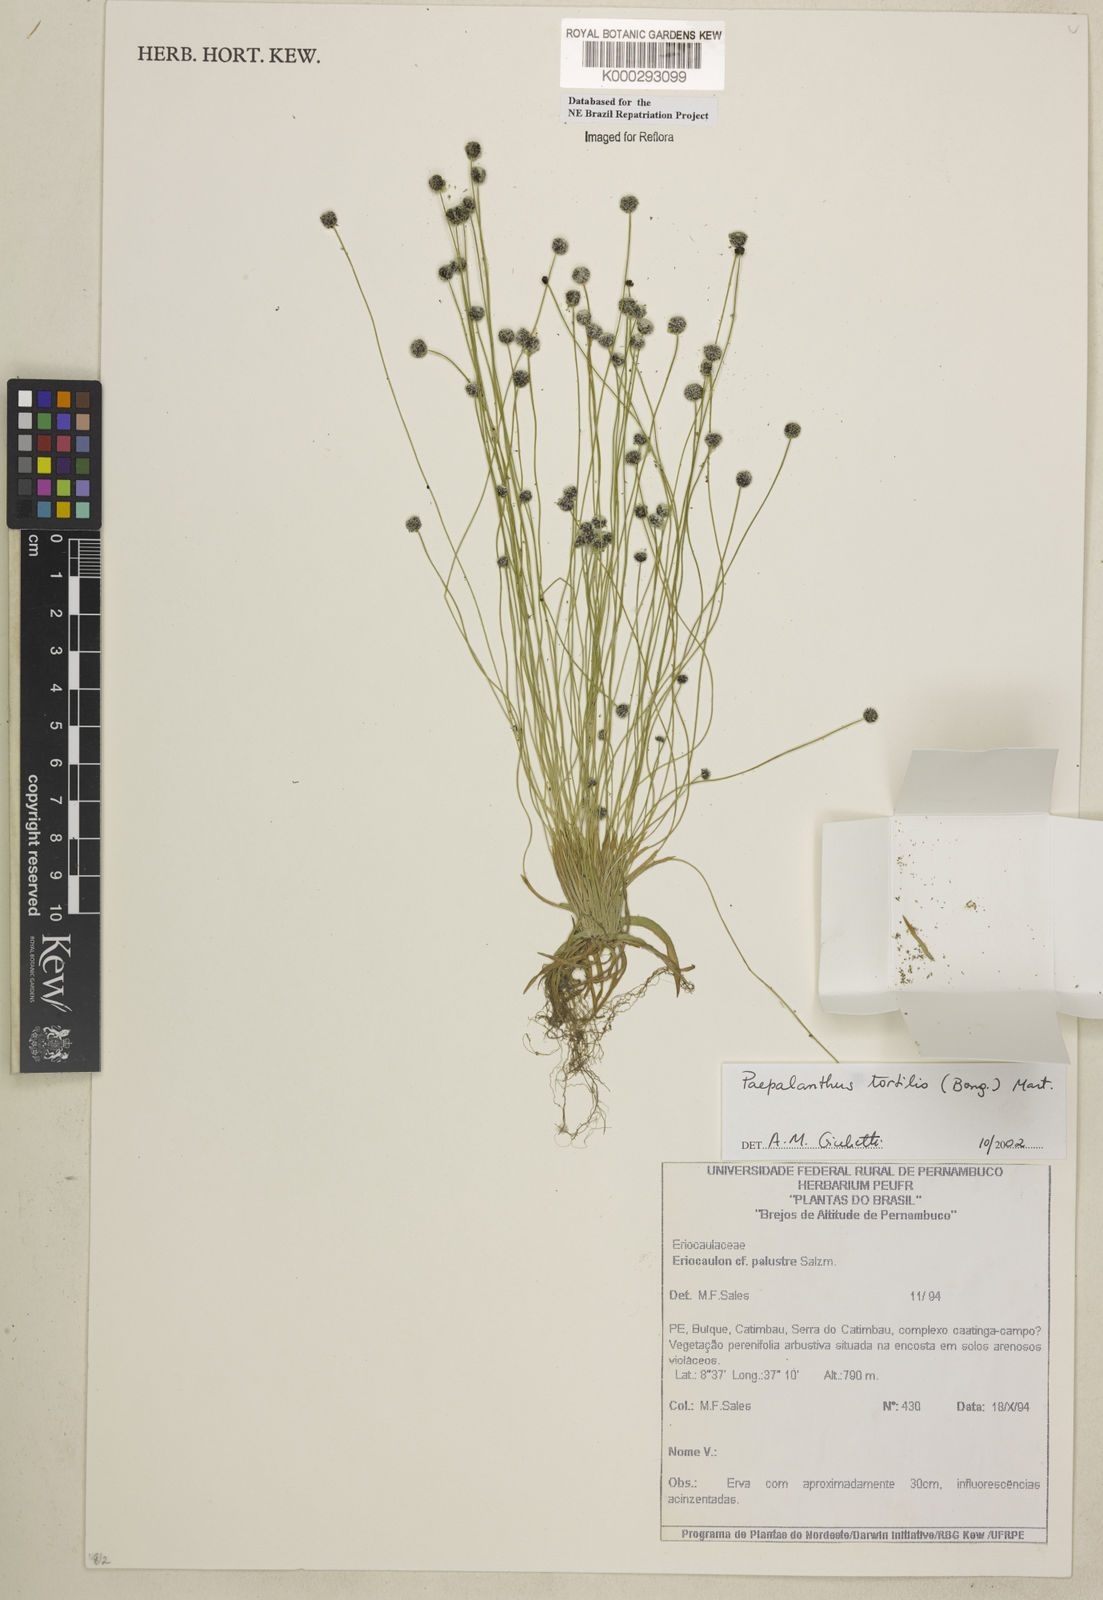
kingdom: Plantae
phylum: Tracheophyta
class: Liliopsida
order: Poales
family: Eriocaulaceae
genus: Paepalanthus
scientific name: Paepalanthus
